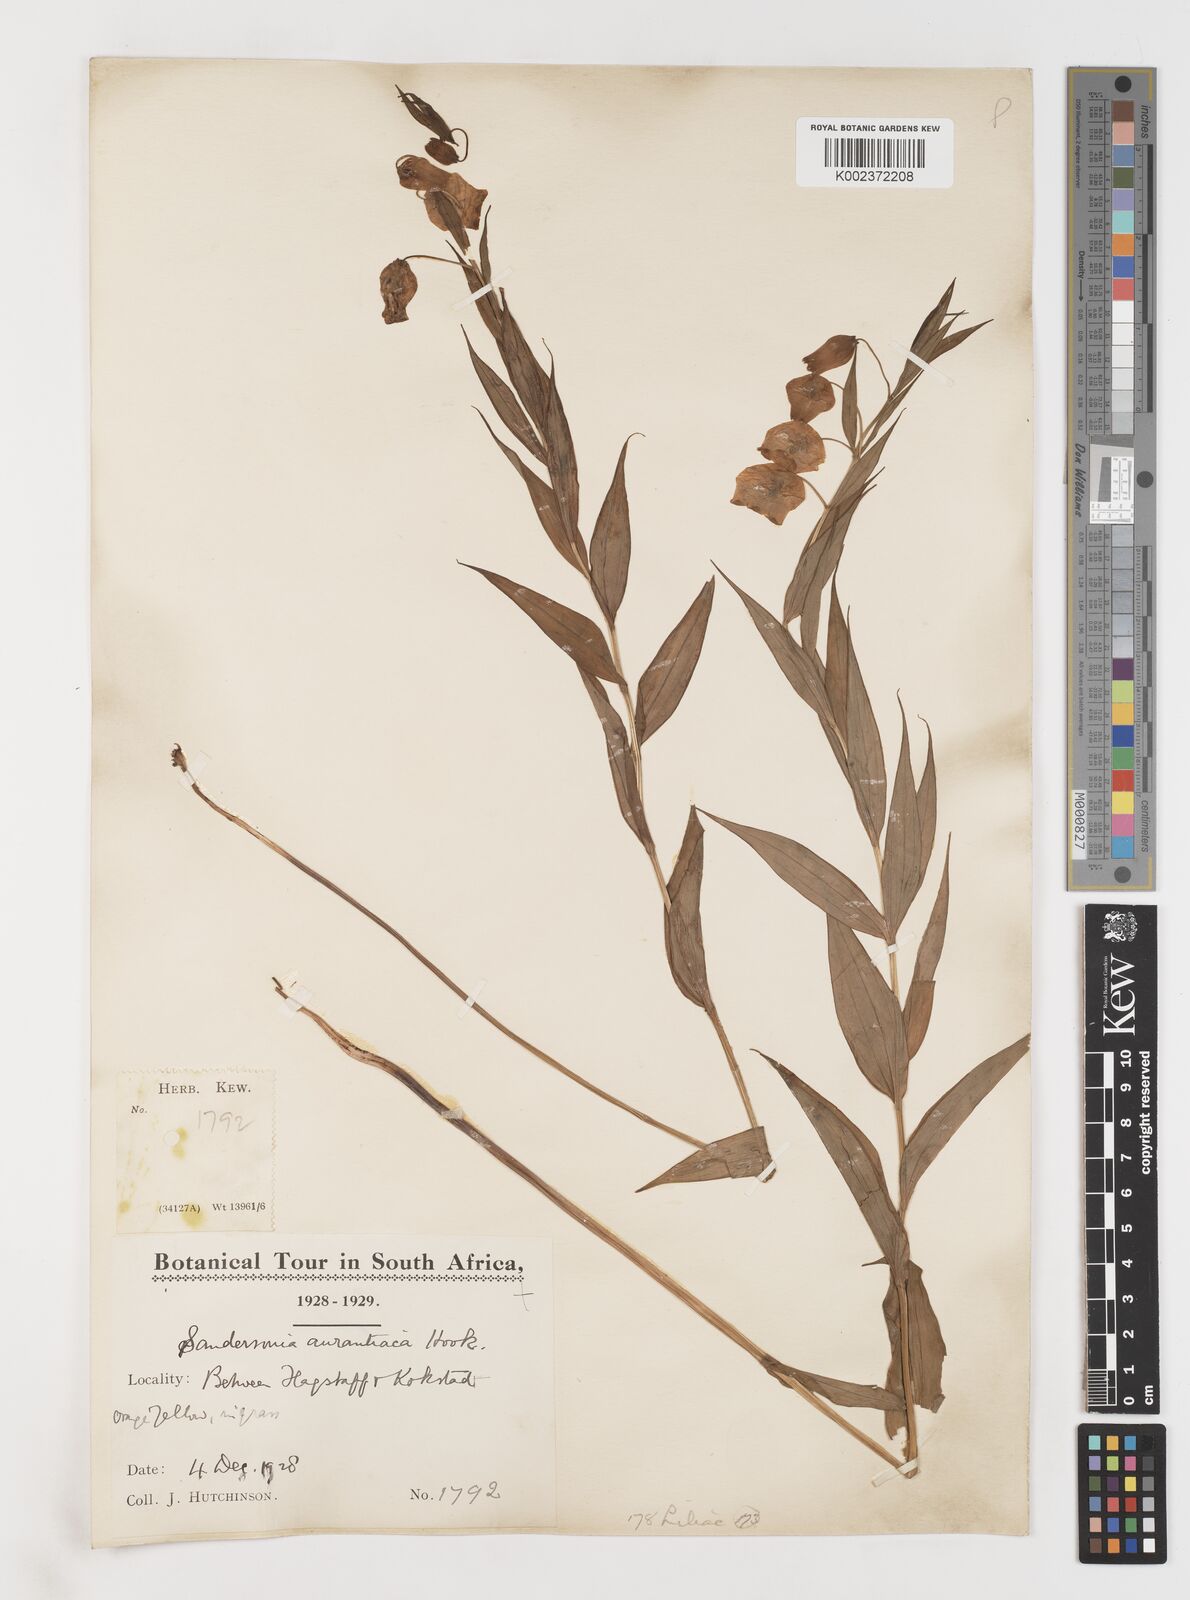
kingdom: Plantae
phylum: Tracheophyta
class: Liliopsida
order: Liliales
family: Colchicaceae
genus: Sandersonia
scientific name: Sandersonia aurantiaca
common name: Chinese-lantern-lily
